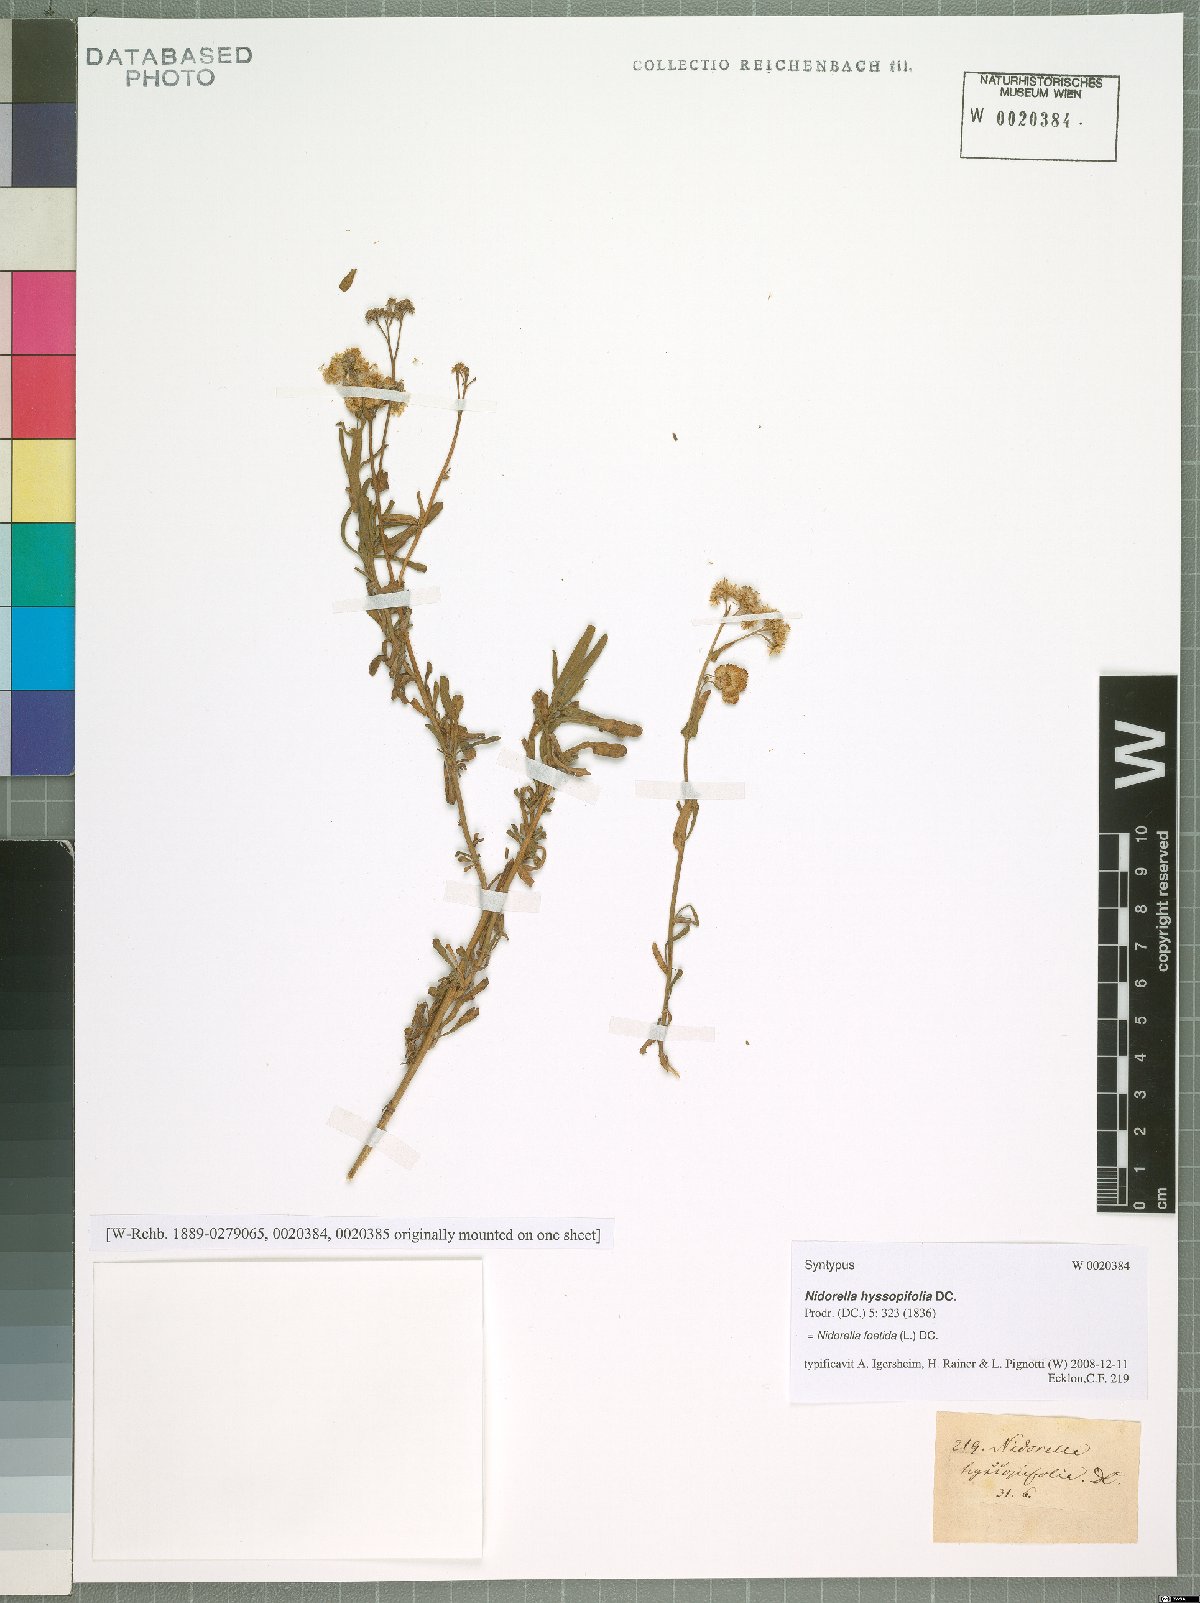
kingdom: Plantae
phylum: Tracheophyta
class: Magnoliopsida
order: Asterales
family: Asteraceae
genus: Nidorella
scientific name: Nidorella foetida
